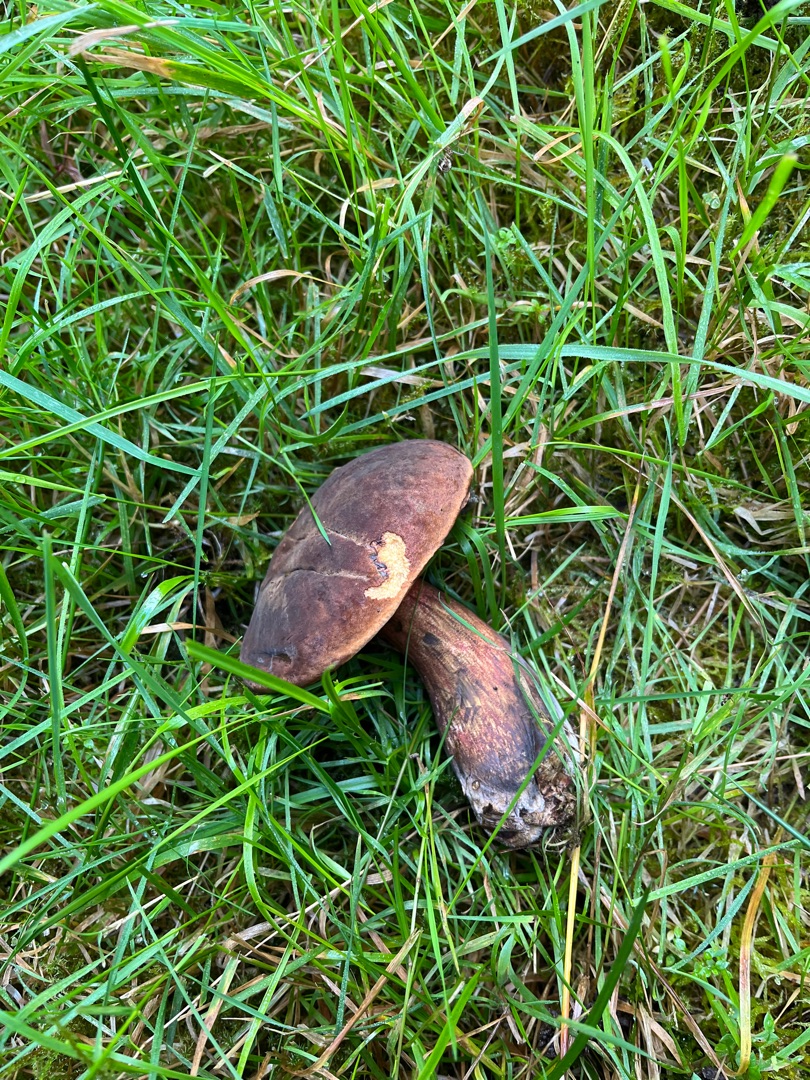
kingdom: Fungi
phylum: Basidiomycota
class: Agaricomycetes
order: Boletales
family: Boletaceae
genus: Neoboletus
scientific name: Neoboletus luridiformis
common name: Punktstokket indigorørhat
